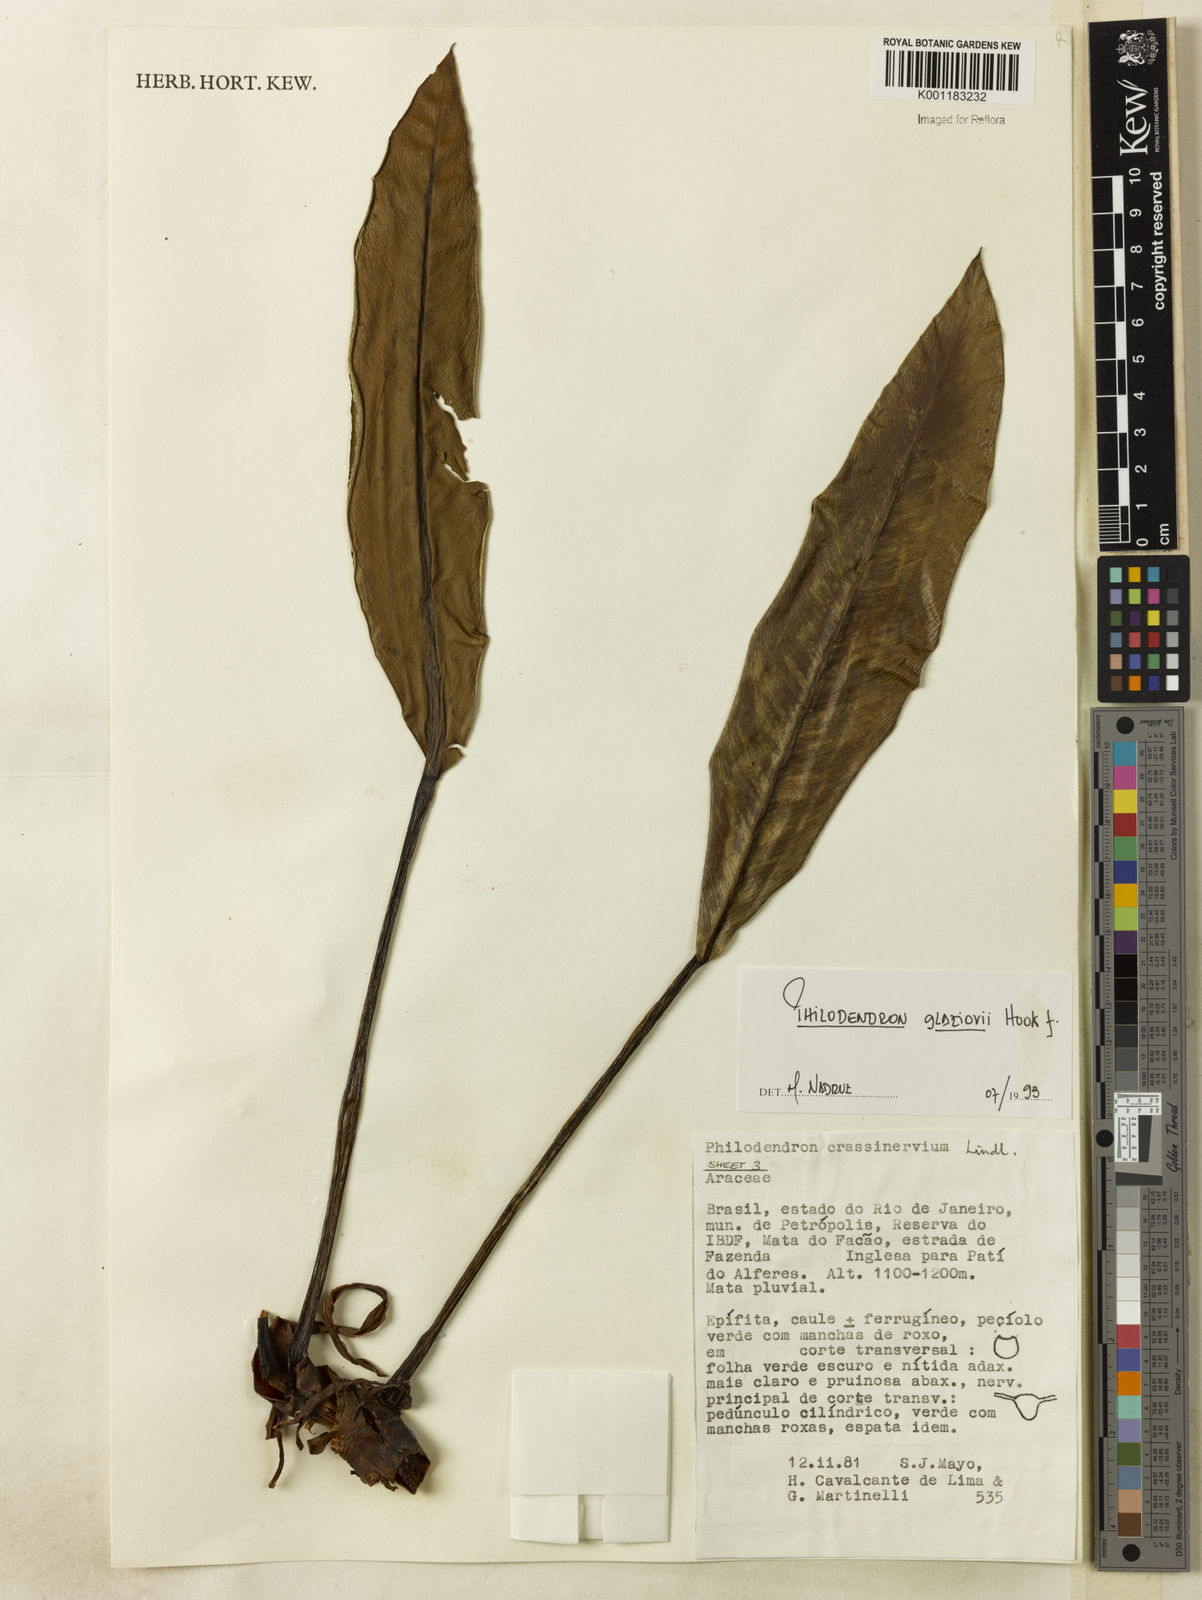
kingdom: Plantae
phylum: Tracheophyta
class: Liliopsida
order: Alismatales
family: Araceae
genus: Philodendron
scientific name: Philodendron glaziovii
